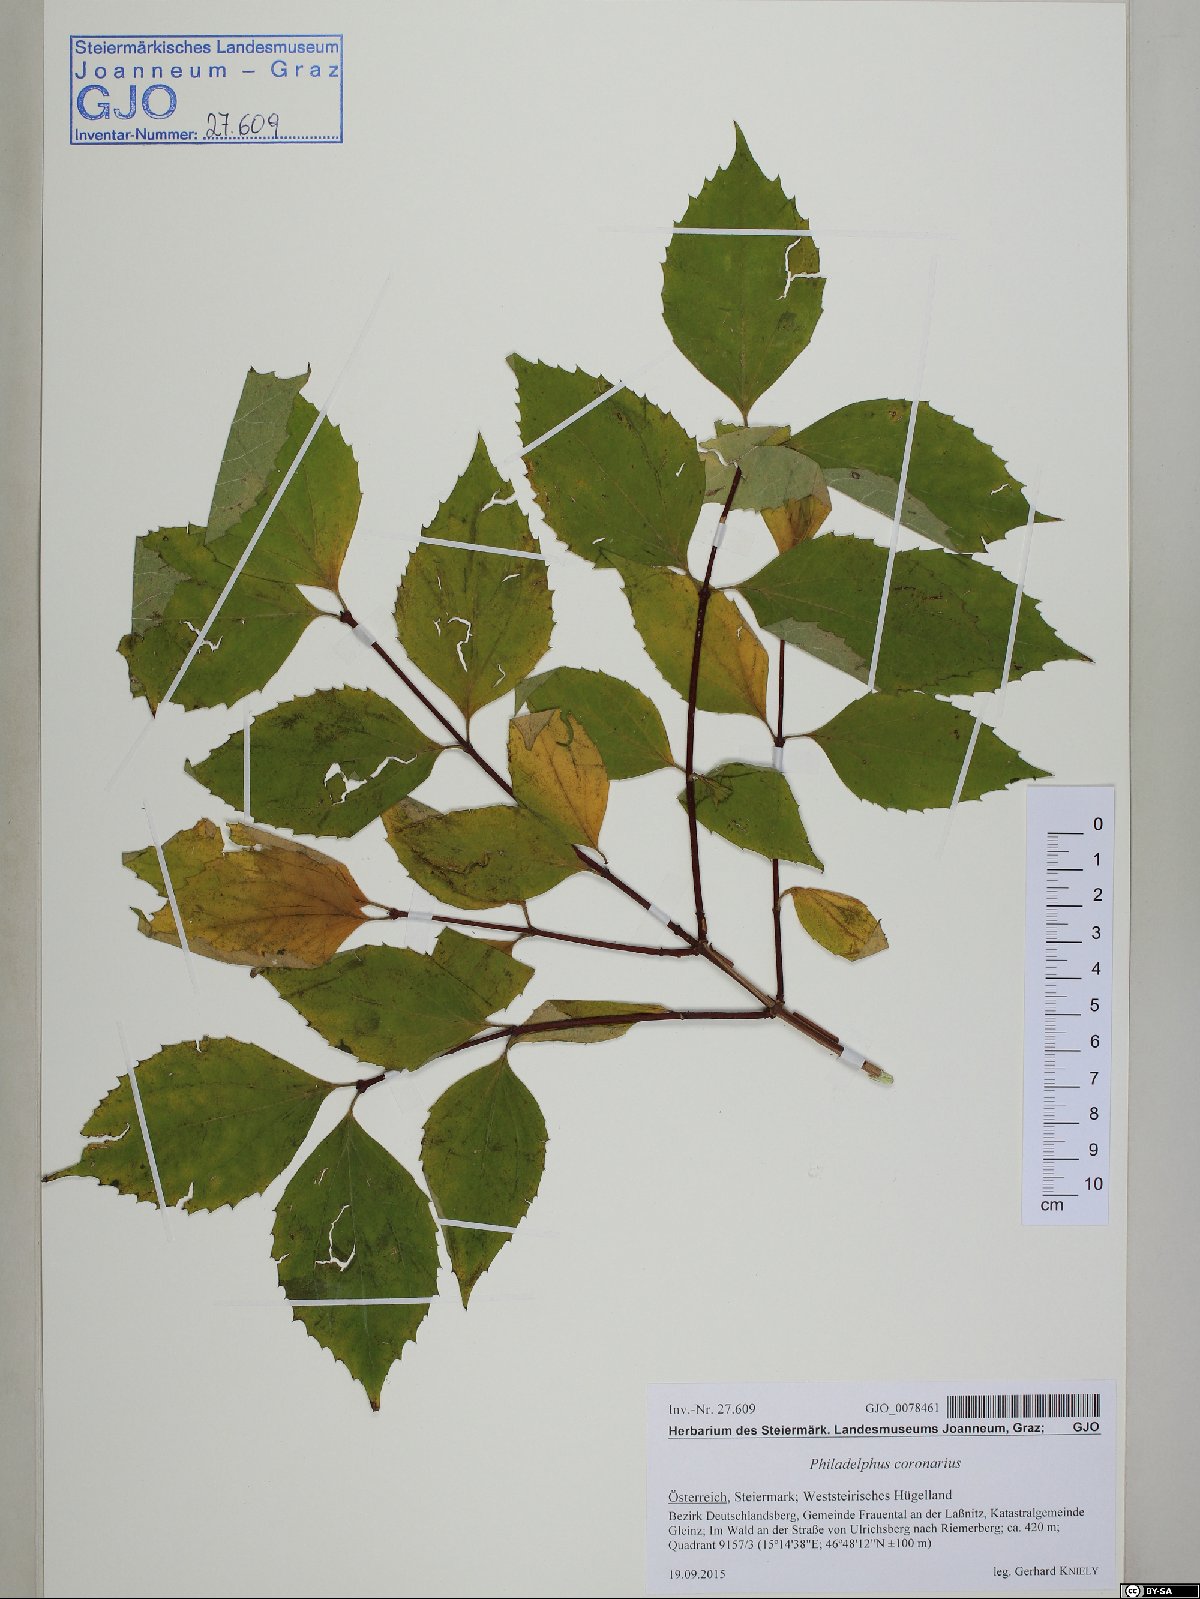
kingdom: Plantae
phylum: Tracheophyta
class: Magnoliopsida
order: Cornales
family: Hydrangeaceae
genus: Philadelphus
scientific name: Philadelphus coronarius
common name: Mock orange
